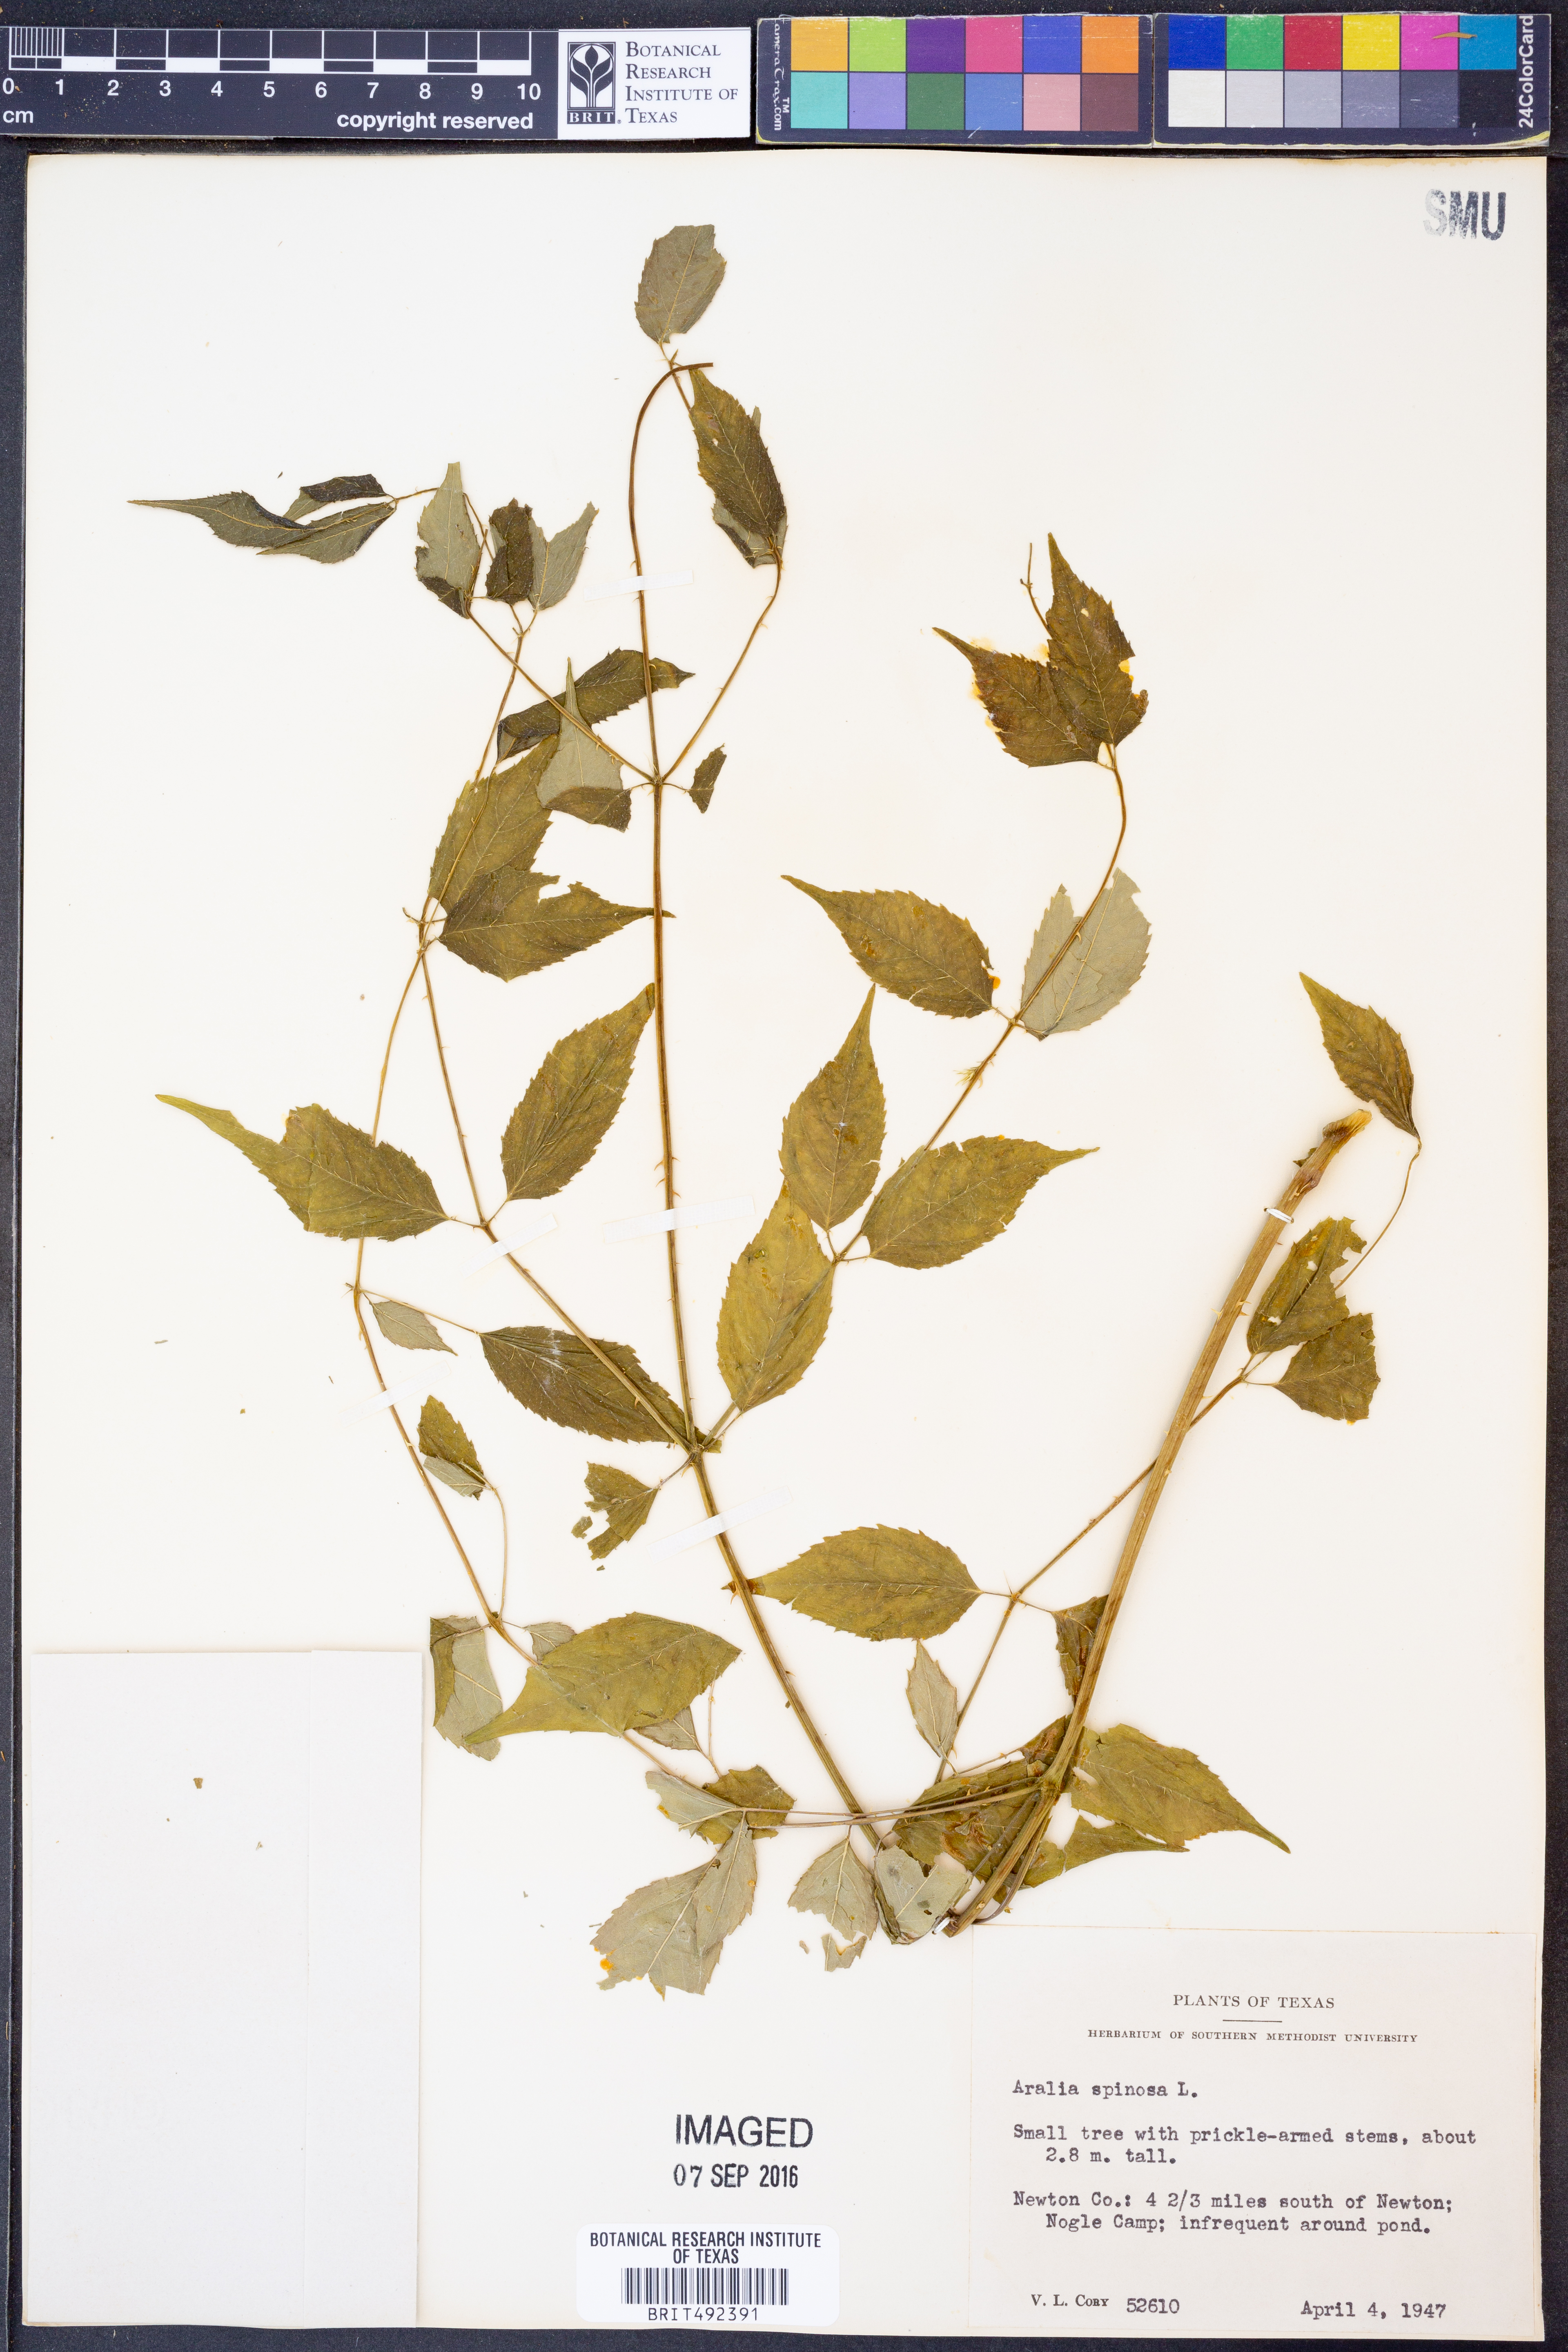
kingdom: Plantae
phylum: Tracheophyta
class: Magnoliopsida
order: Apiales
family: Araliaceae
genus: Aralia
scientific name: Aralia spinosa
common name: Hercules'-club
